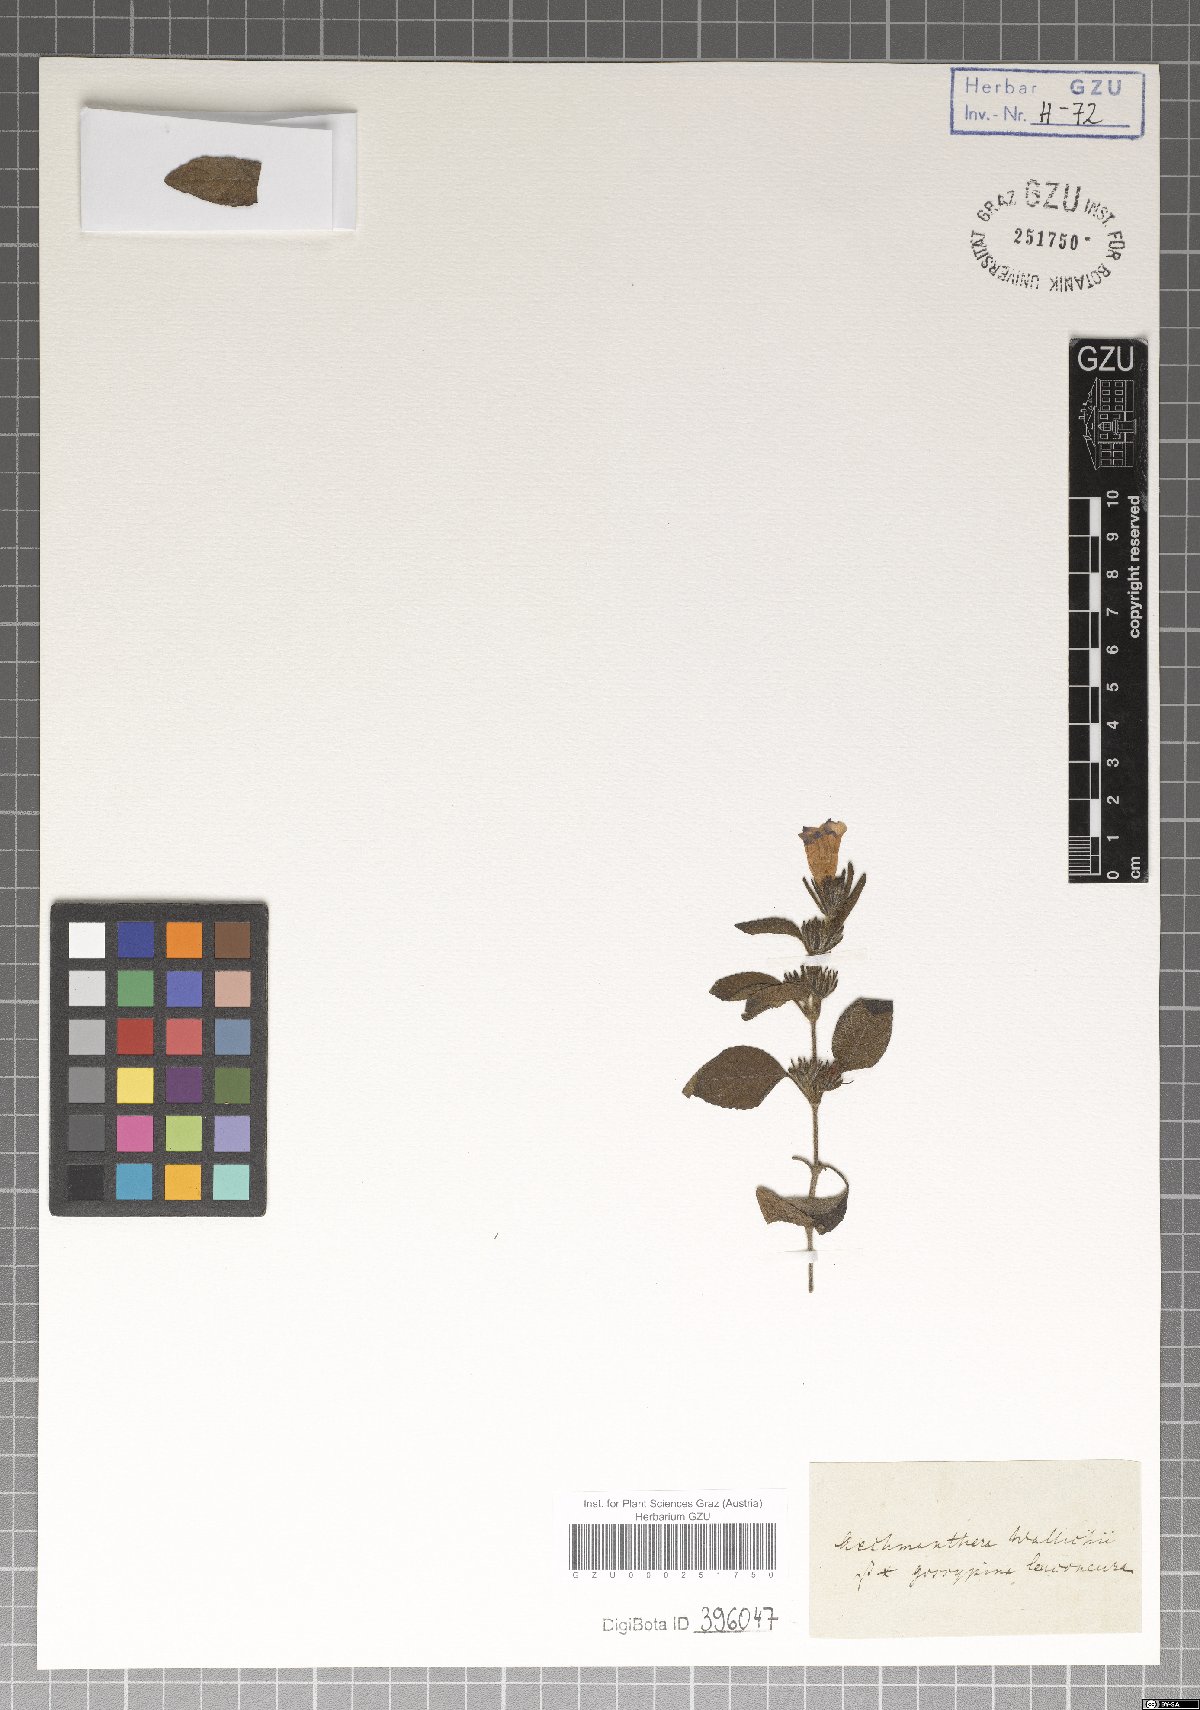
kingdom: Plantae
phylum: Tracheophyta
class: Magnoliopsida
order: Lamiales
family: Acanthaceae
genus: Strobilanthes
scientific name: Strobilanthes tomentosa
